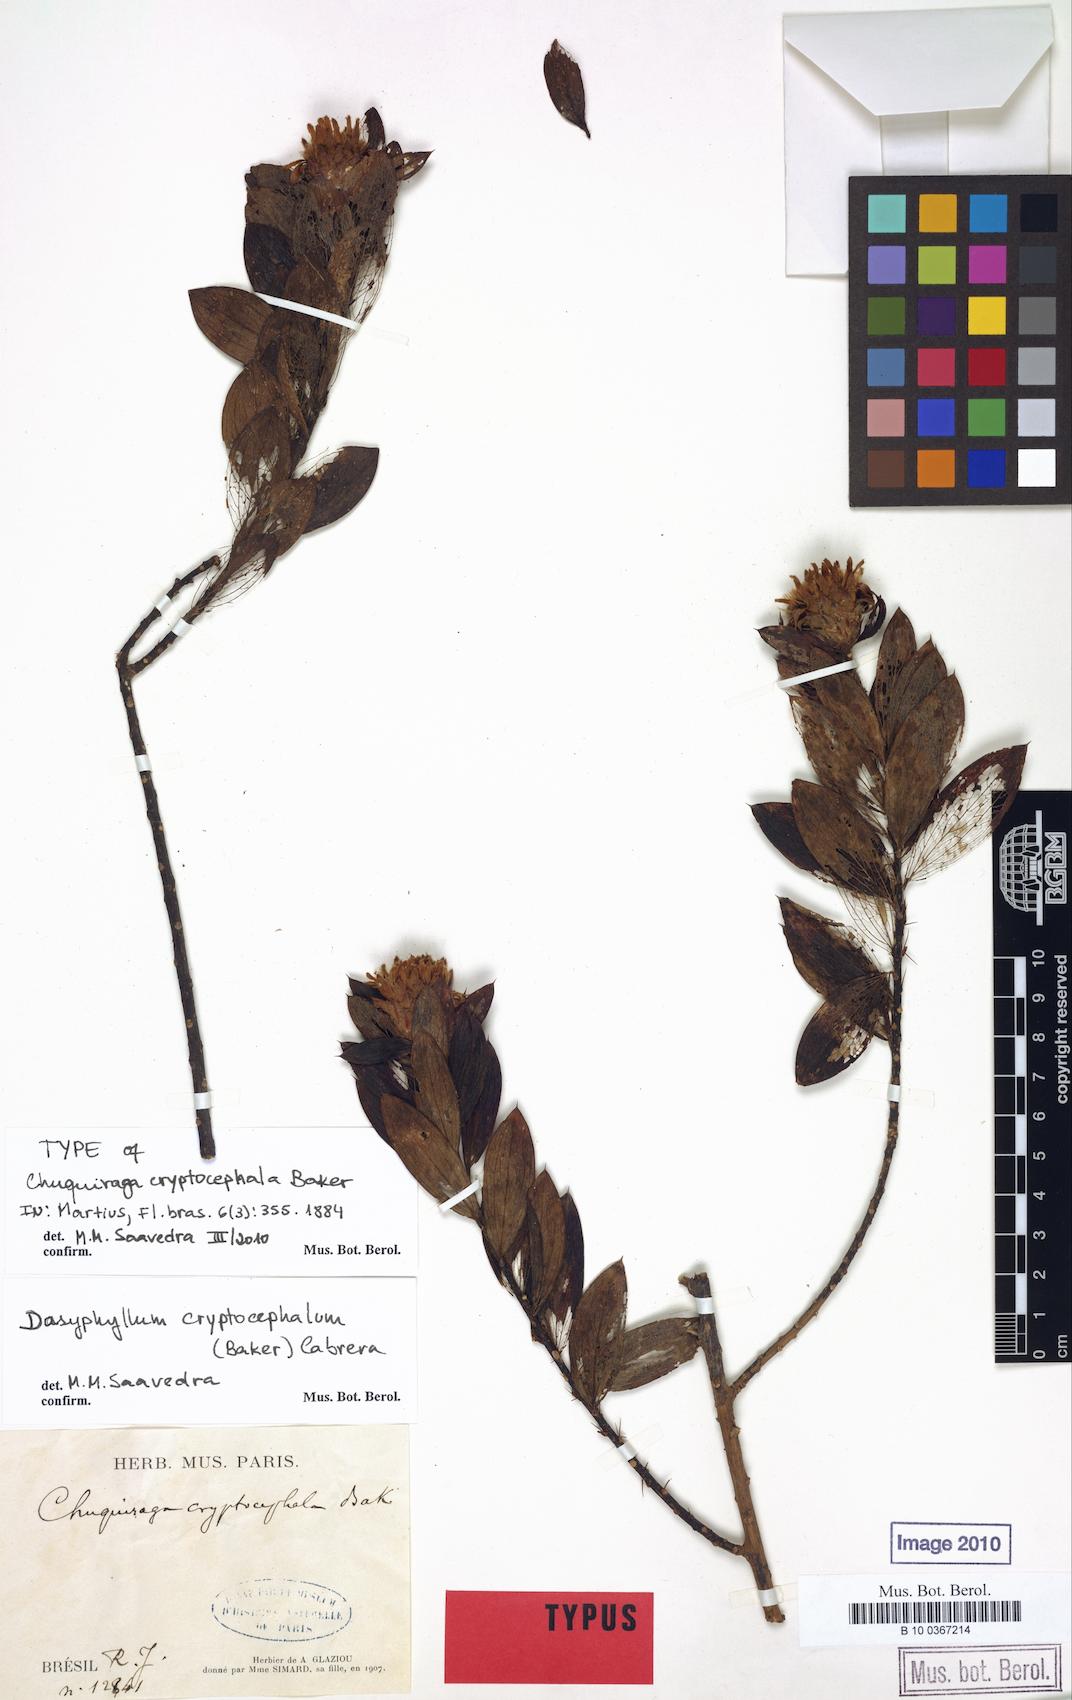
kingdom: Plantae
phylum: Tracheophyta
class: Magnoliopsida
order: Asterales
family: Asteraceae
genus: Dasyphyllum
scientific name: Dasyphyllum cryptocephalum
